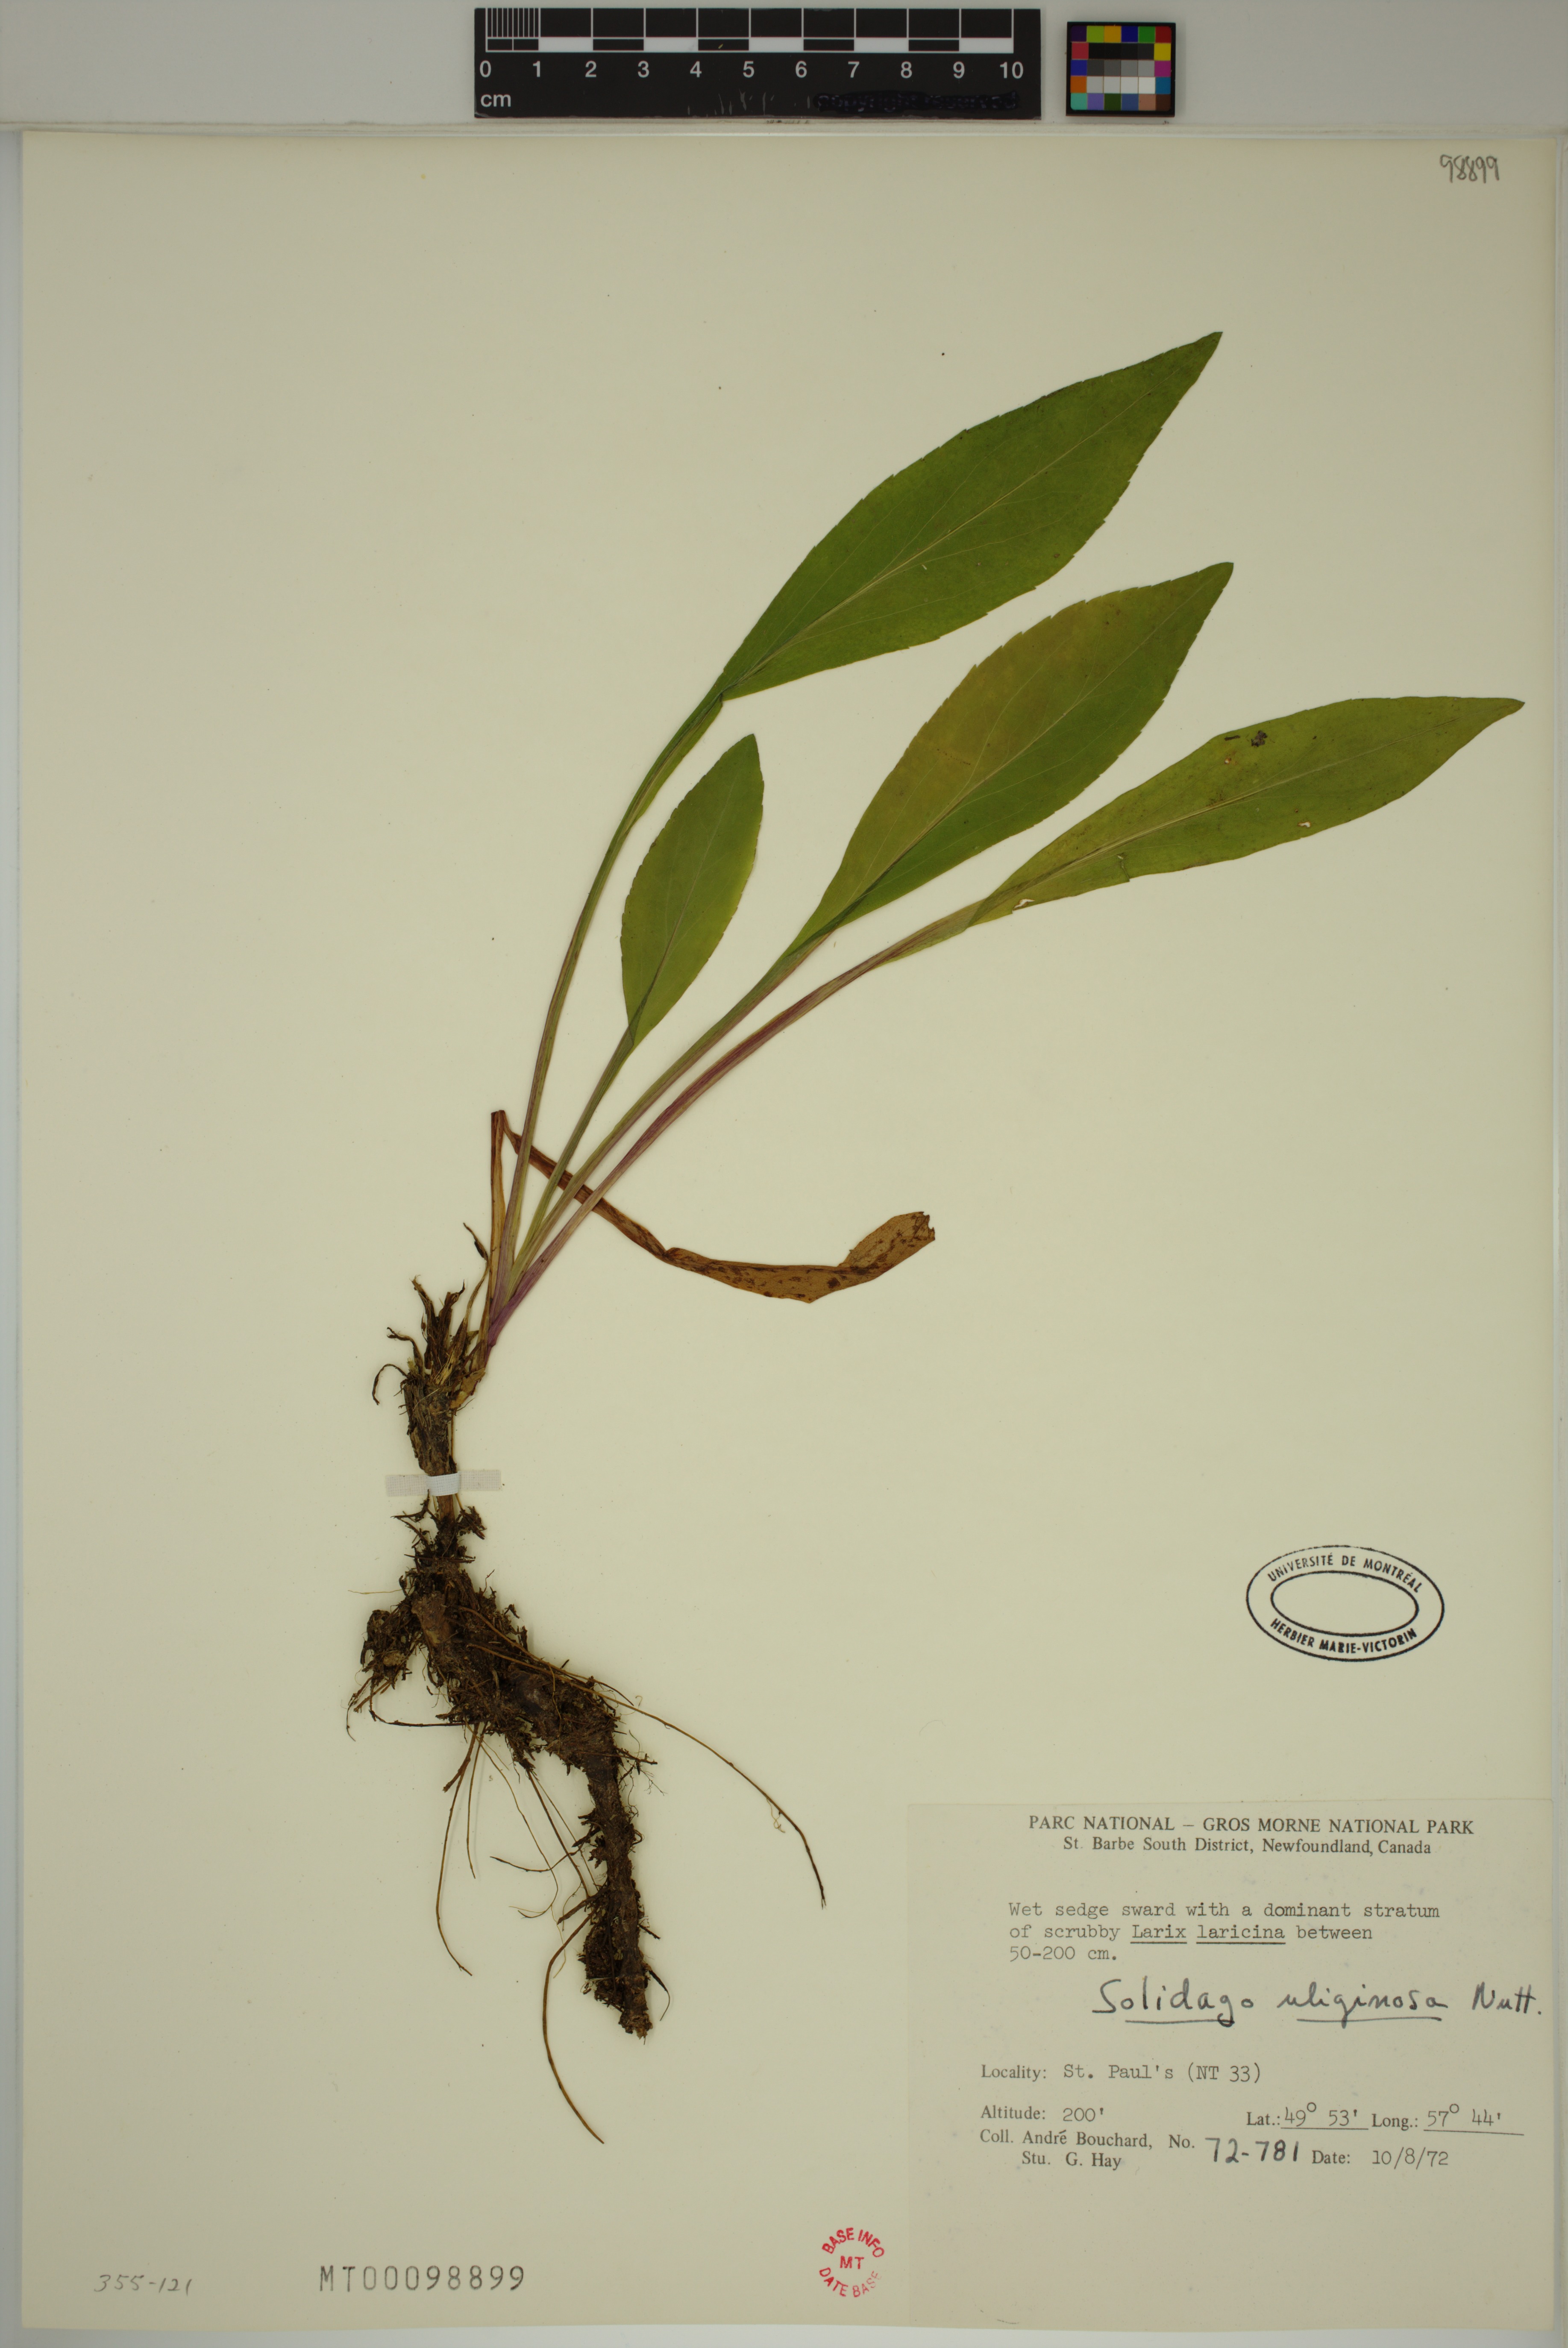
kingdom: Plantae
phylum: Tracheophyta
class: Magnoliopsida
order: Asterales
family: Asteraceae
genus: Solidago
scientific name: Solidago uliginosa
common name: Bog goldenrod
